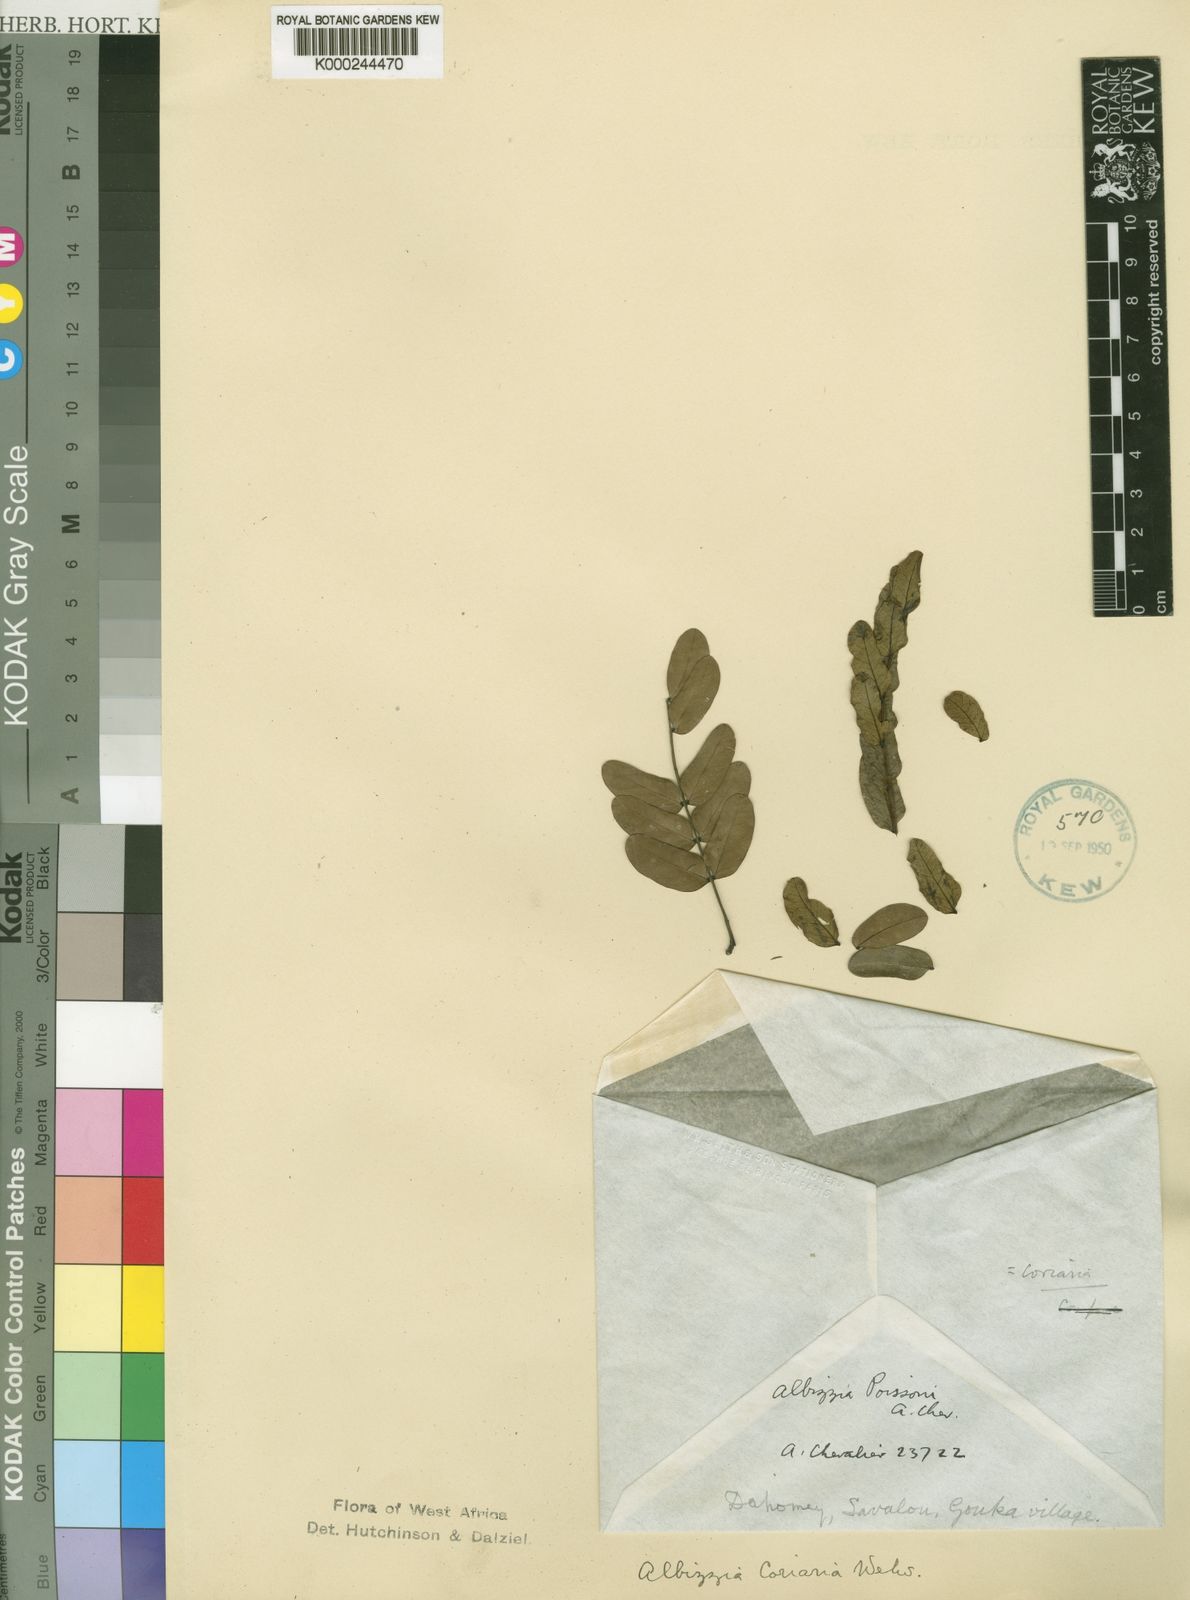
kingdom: Plantae
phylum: Tracheophyta
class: Magnoliopsida
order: Fabales
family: Fabaceae
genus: Albizia
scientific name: Albizia coriaria
